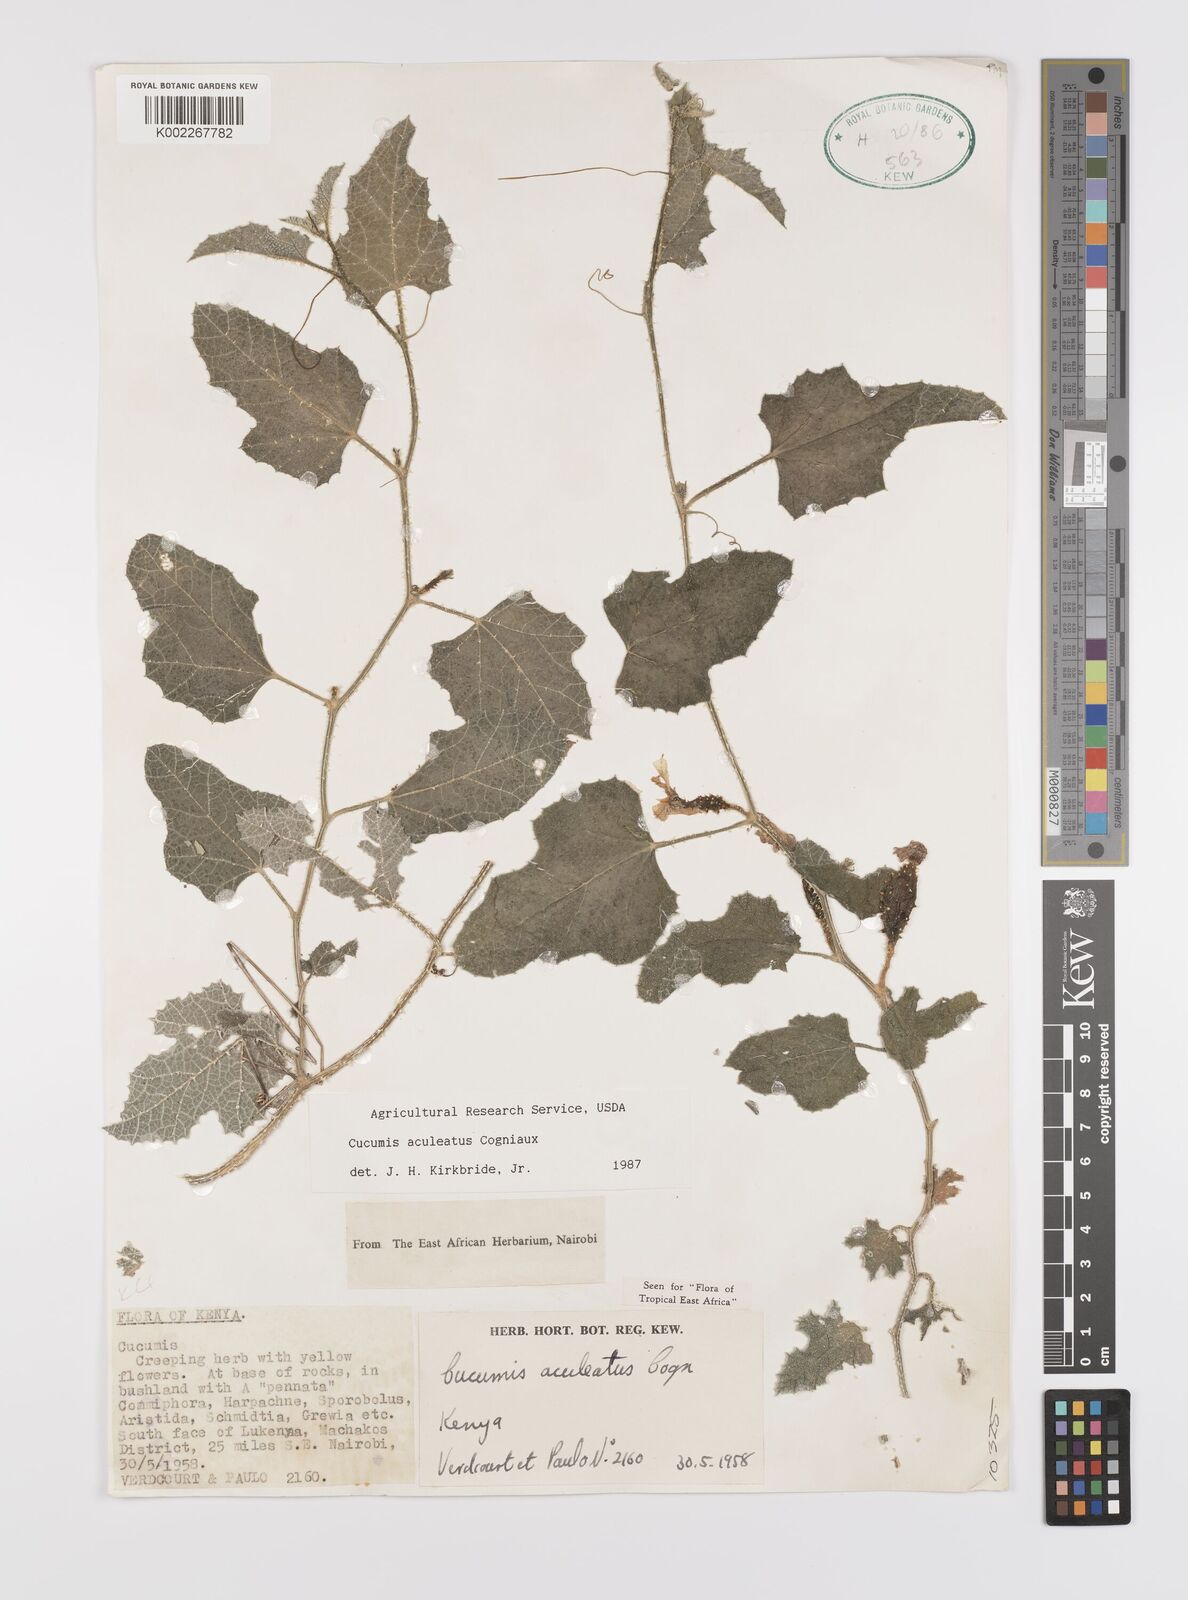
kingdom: Plantae
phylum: Tracheophyta
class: Magnoliopsida
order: Cucurbitales
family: Cucurbitaceae
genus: Cucumis
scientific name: Cucumis aculeatus
